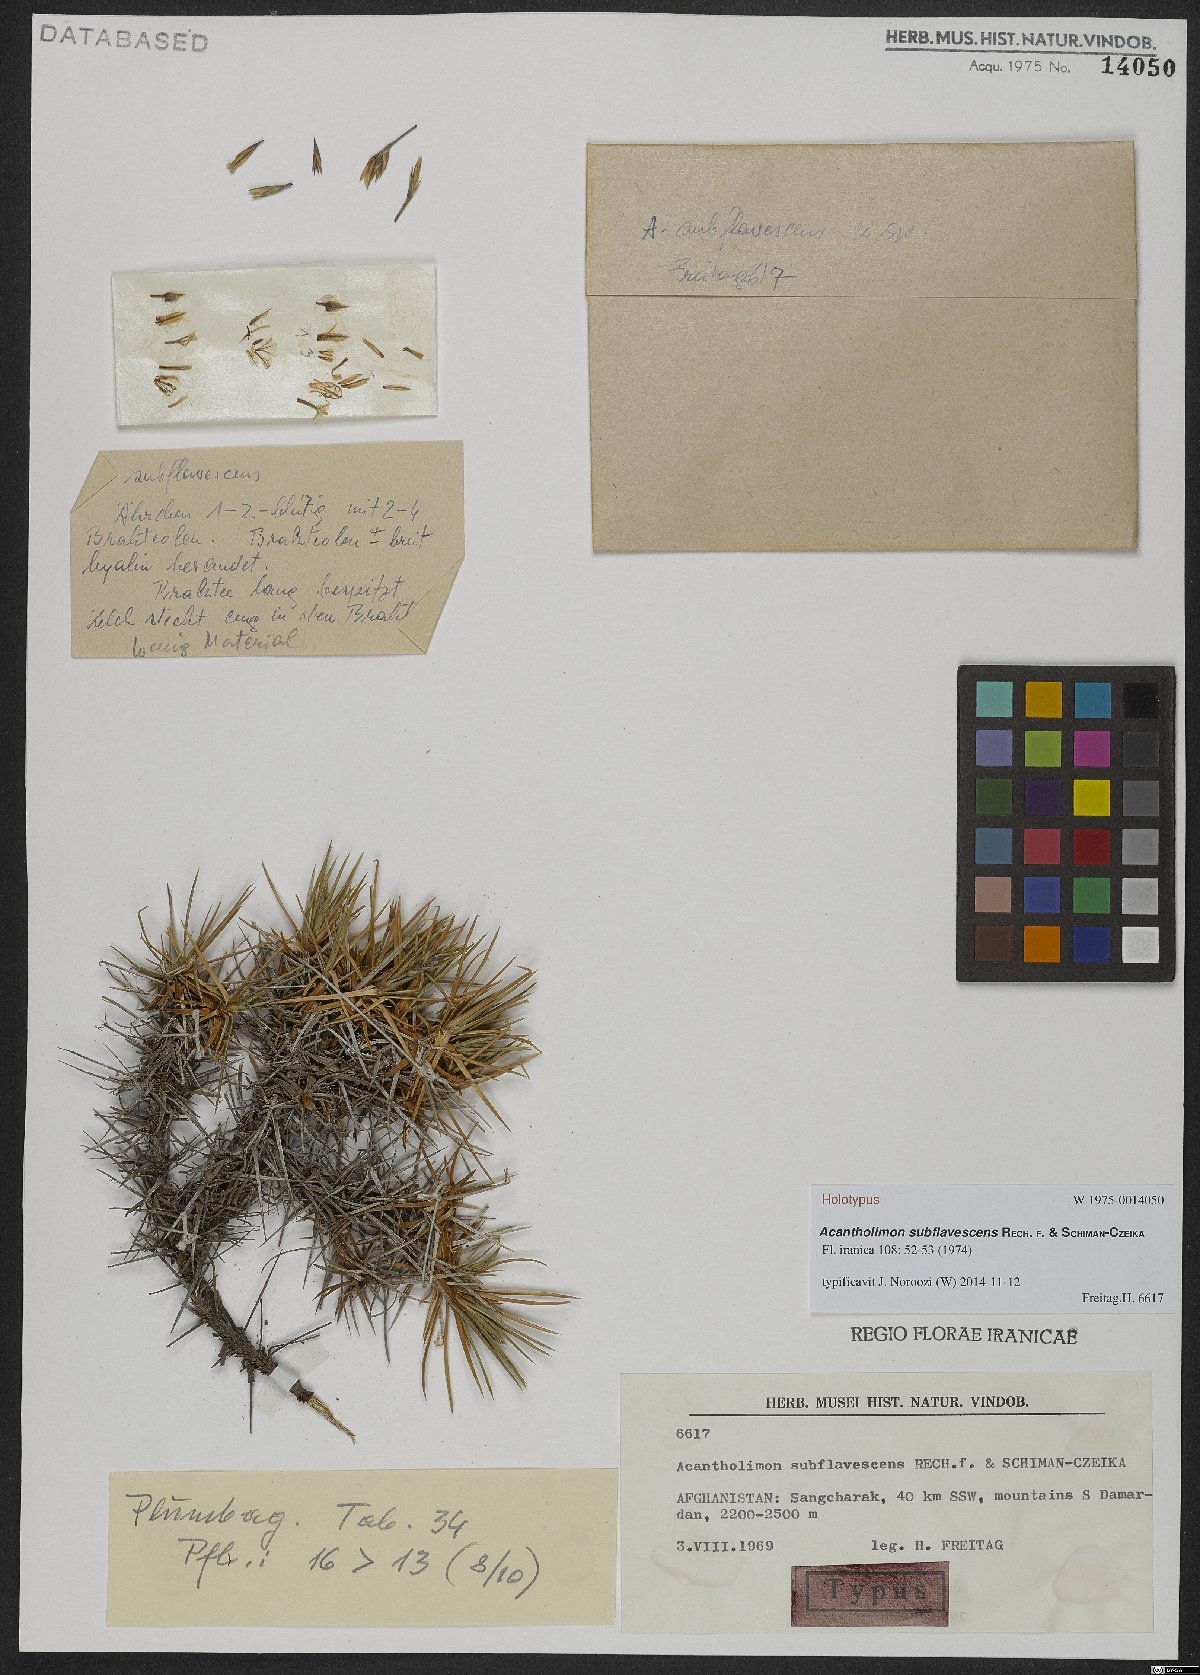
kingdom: Plantae
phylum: Tracheophyta
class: Magnoliopsida
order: Caryophyllales
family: Plumbaginaceae
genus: Acantholimon
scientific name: Acantholimon subflavescens
